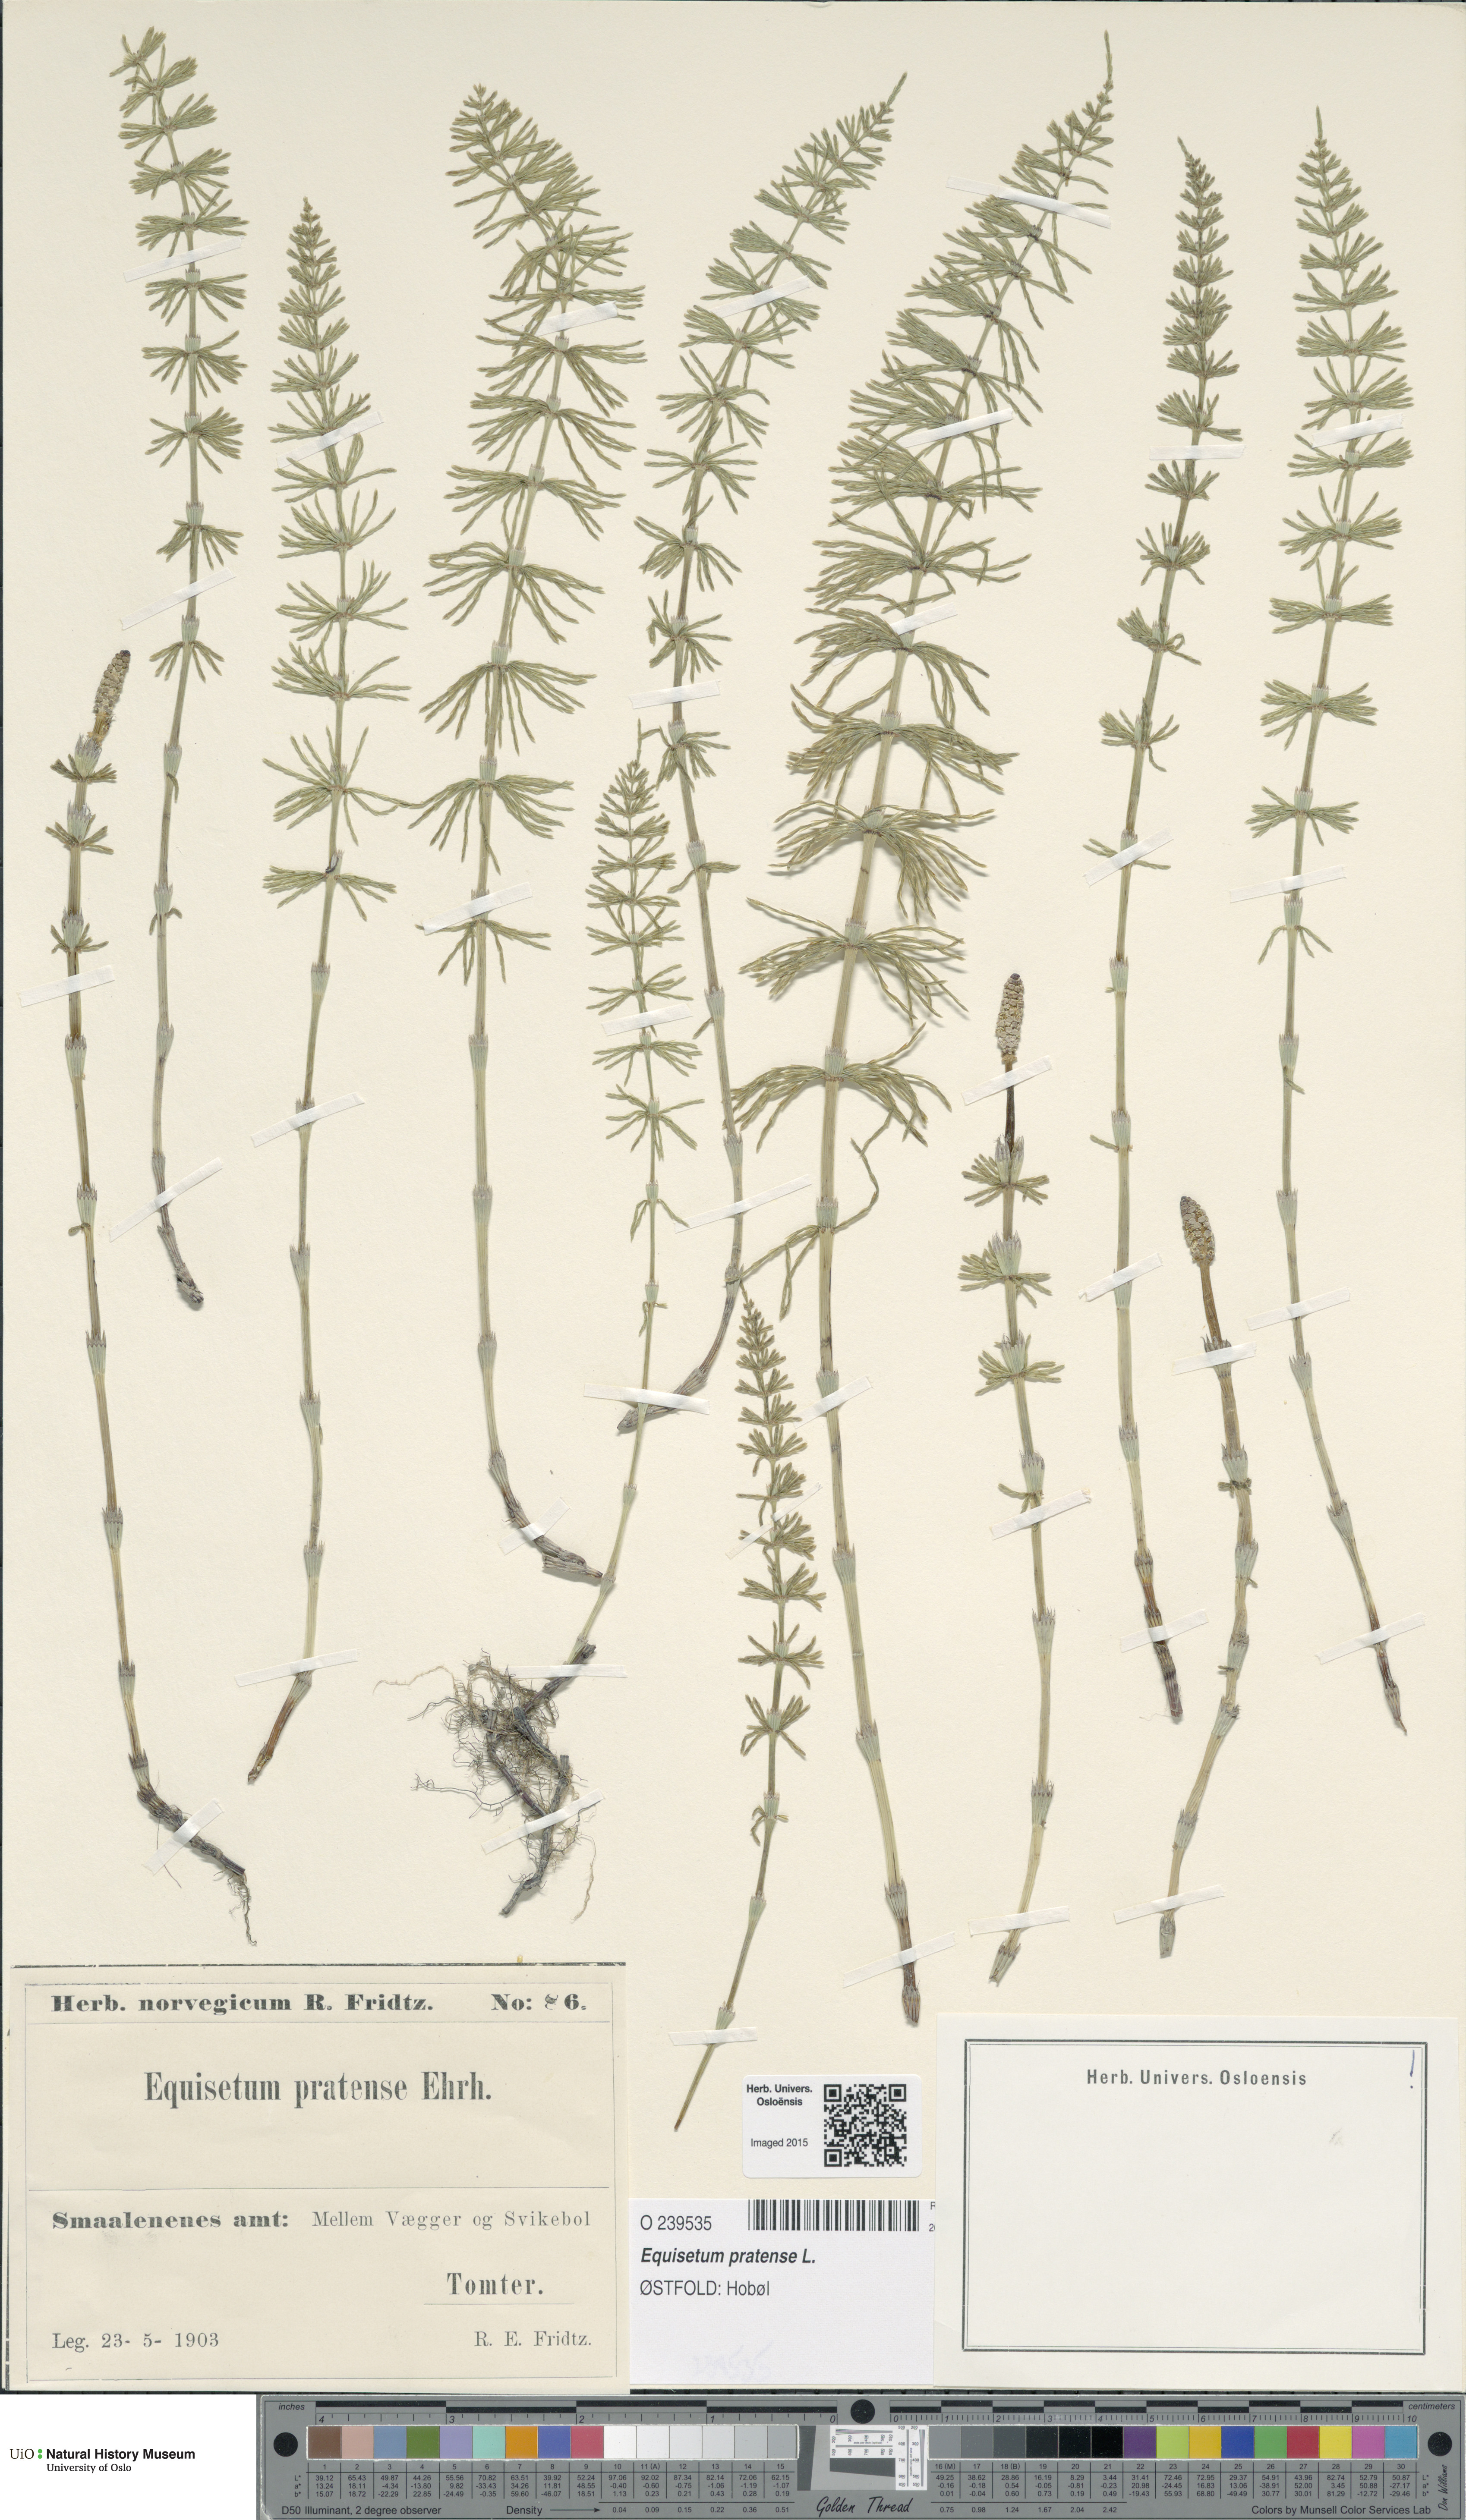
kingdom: Plantae
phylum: Tracheophyta
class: Polypodiopsida
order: Equisetales
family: Equisetaceae
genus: Equisetum
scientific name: Equisetum pratense
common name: Meadow horsetail
